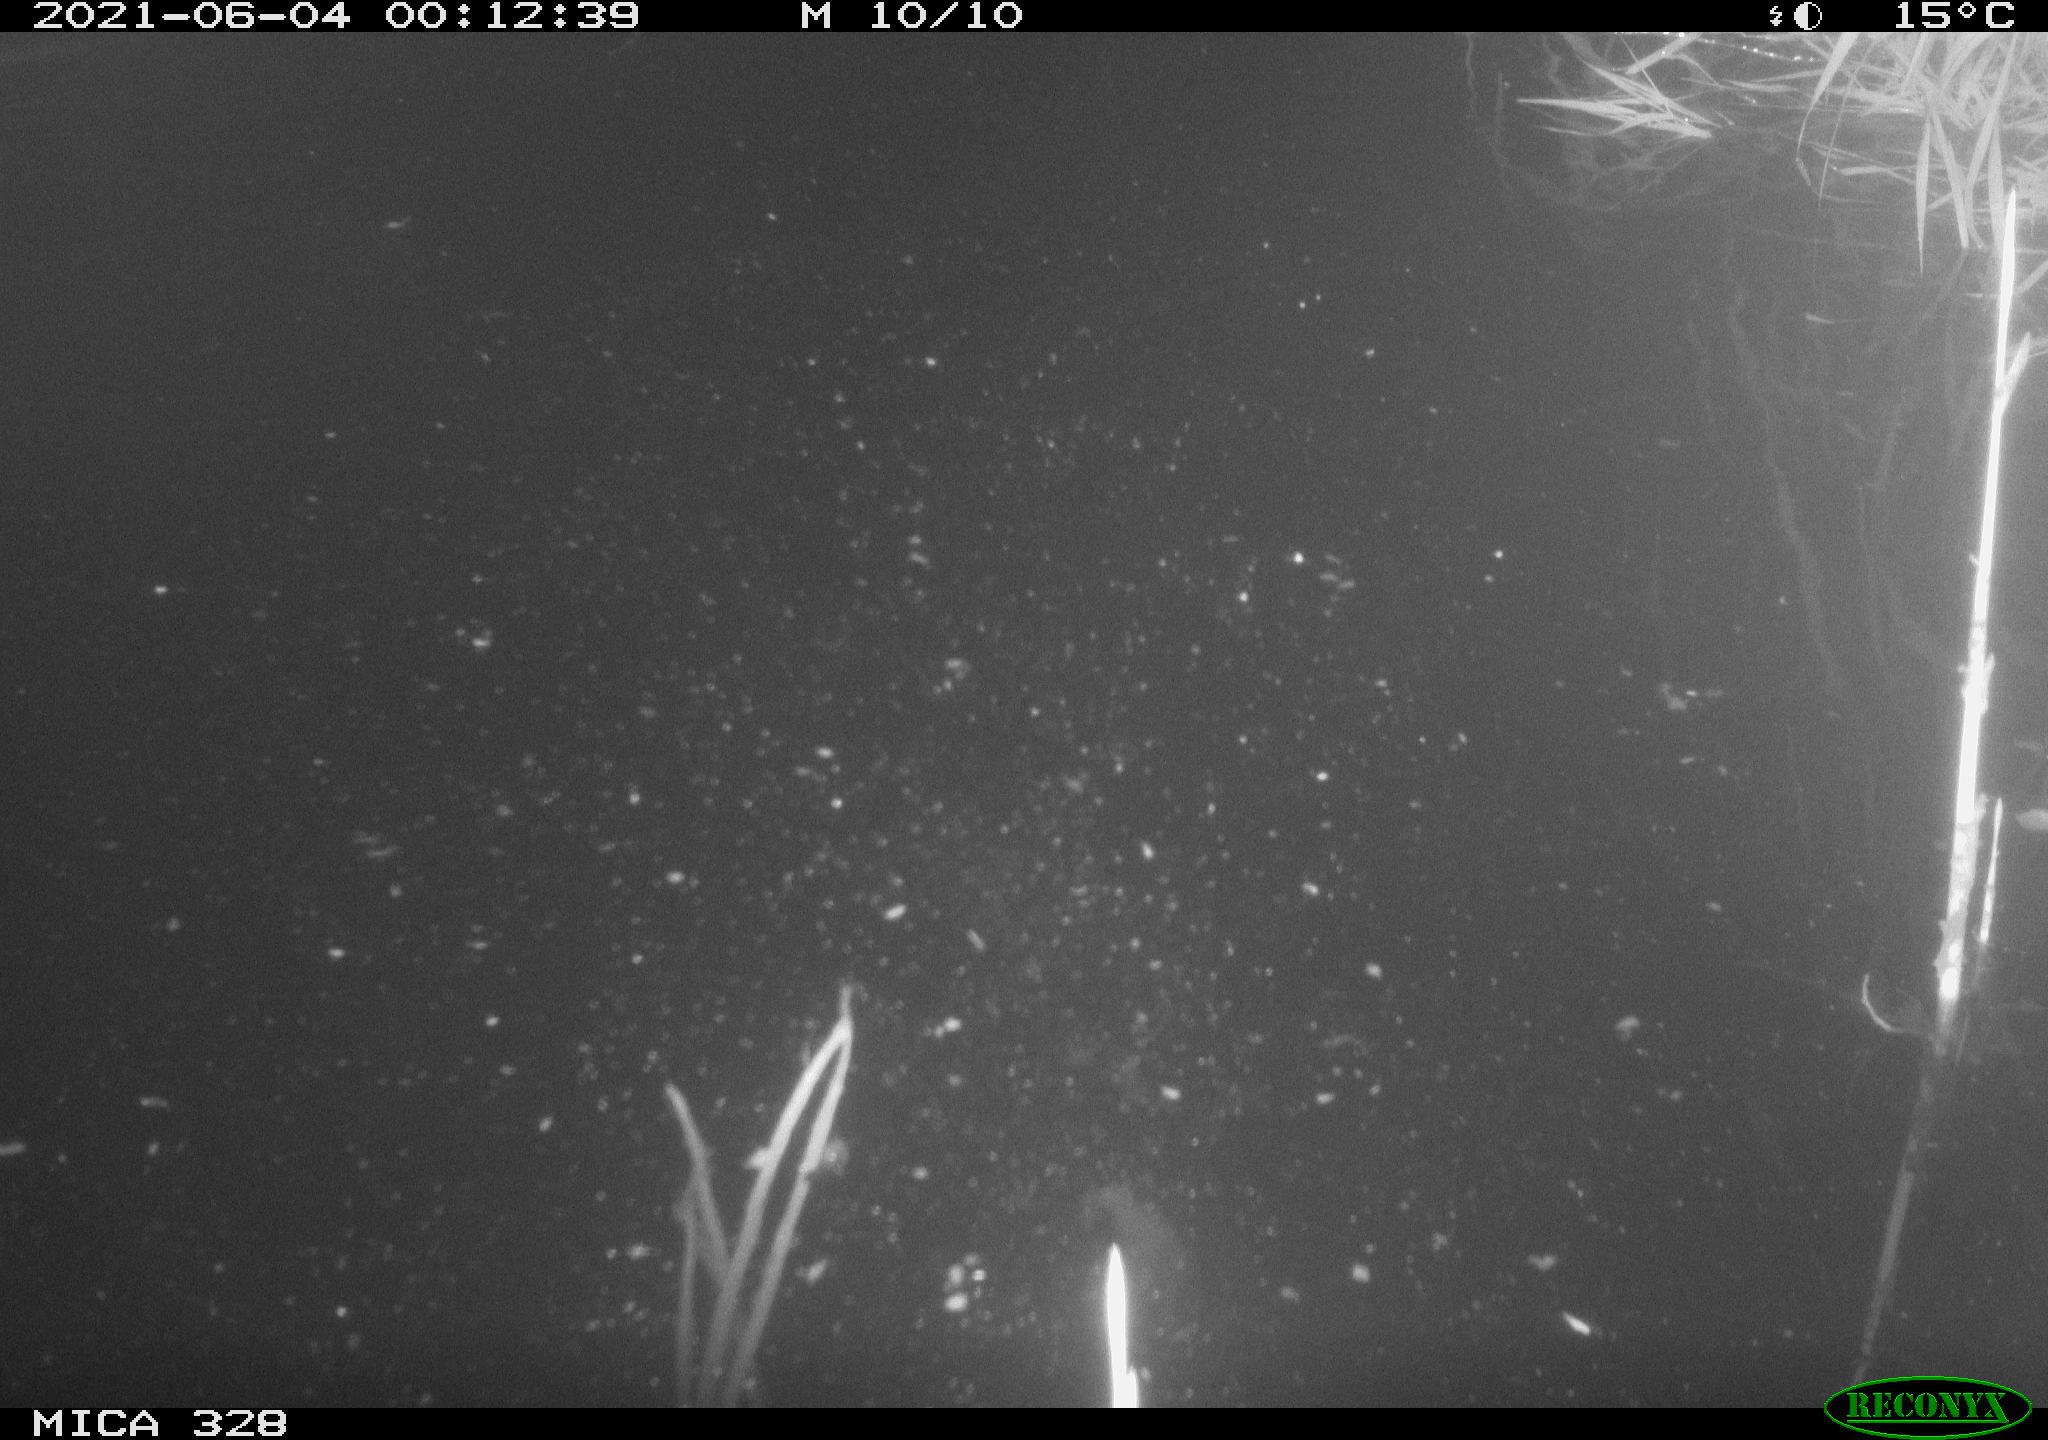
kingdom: Animalia
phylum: Chordata
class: Mammalia
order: Rodentia
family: Cricetidae
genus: Ondatra
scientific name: Ondatra zibethicus
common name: Muskrat
